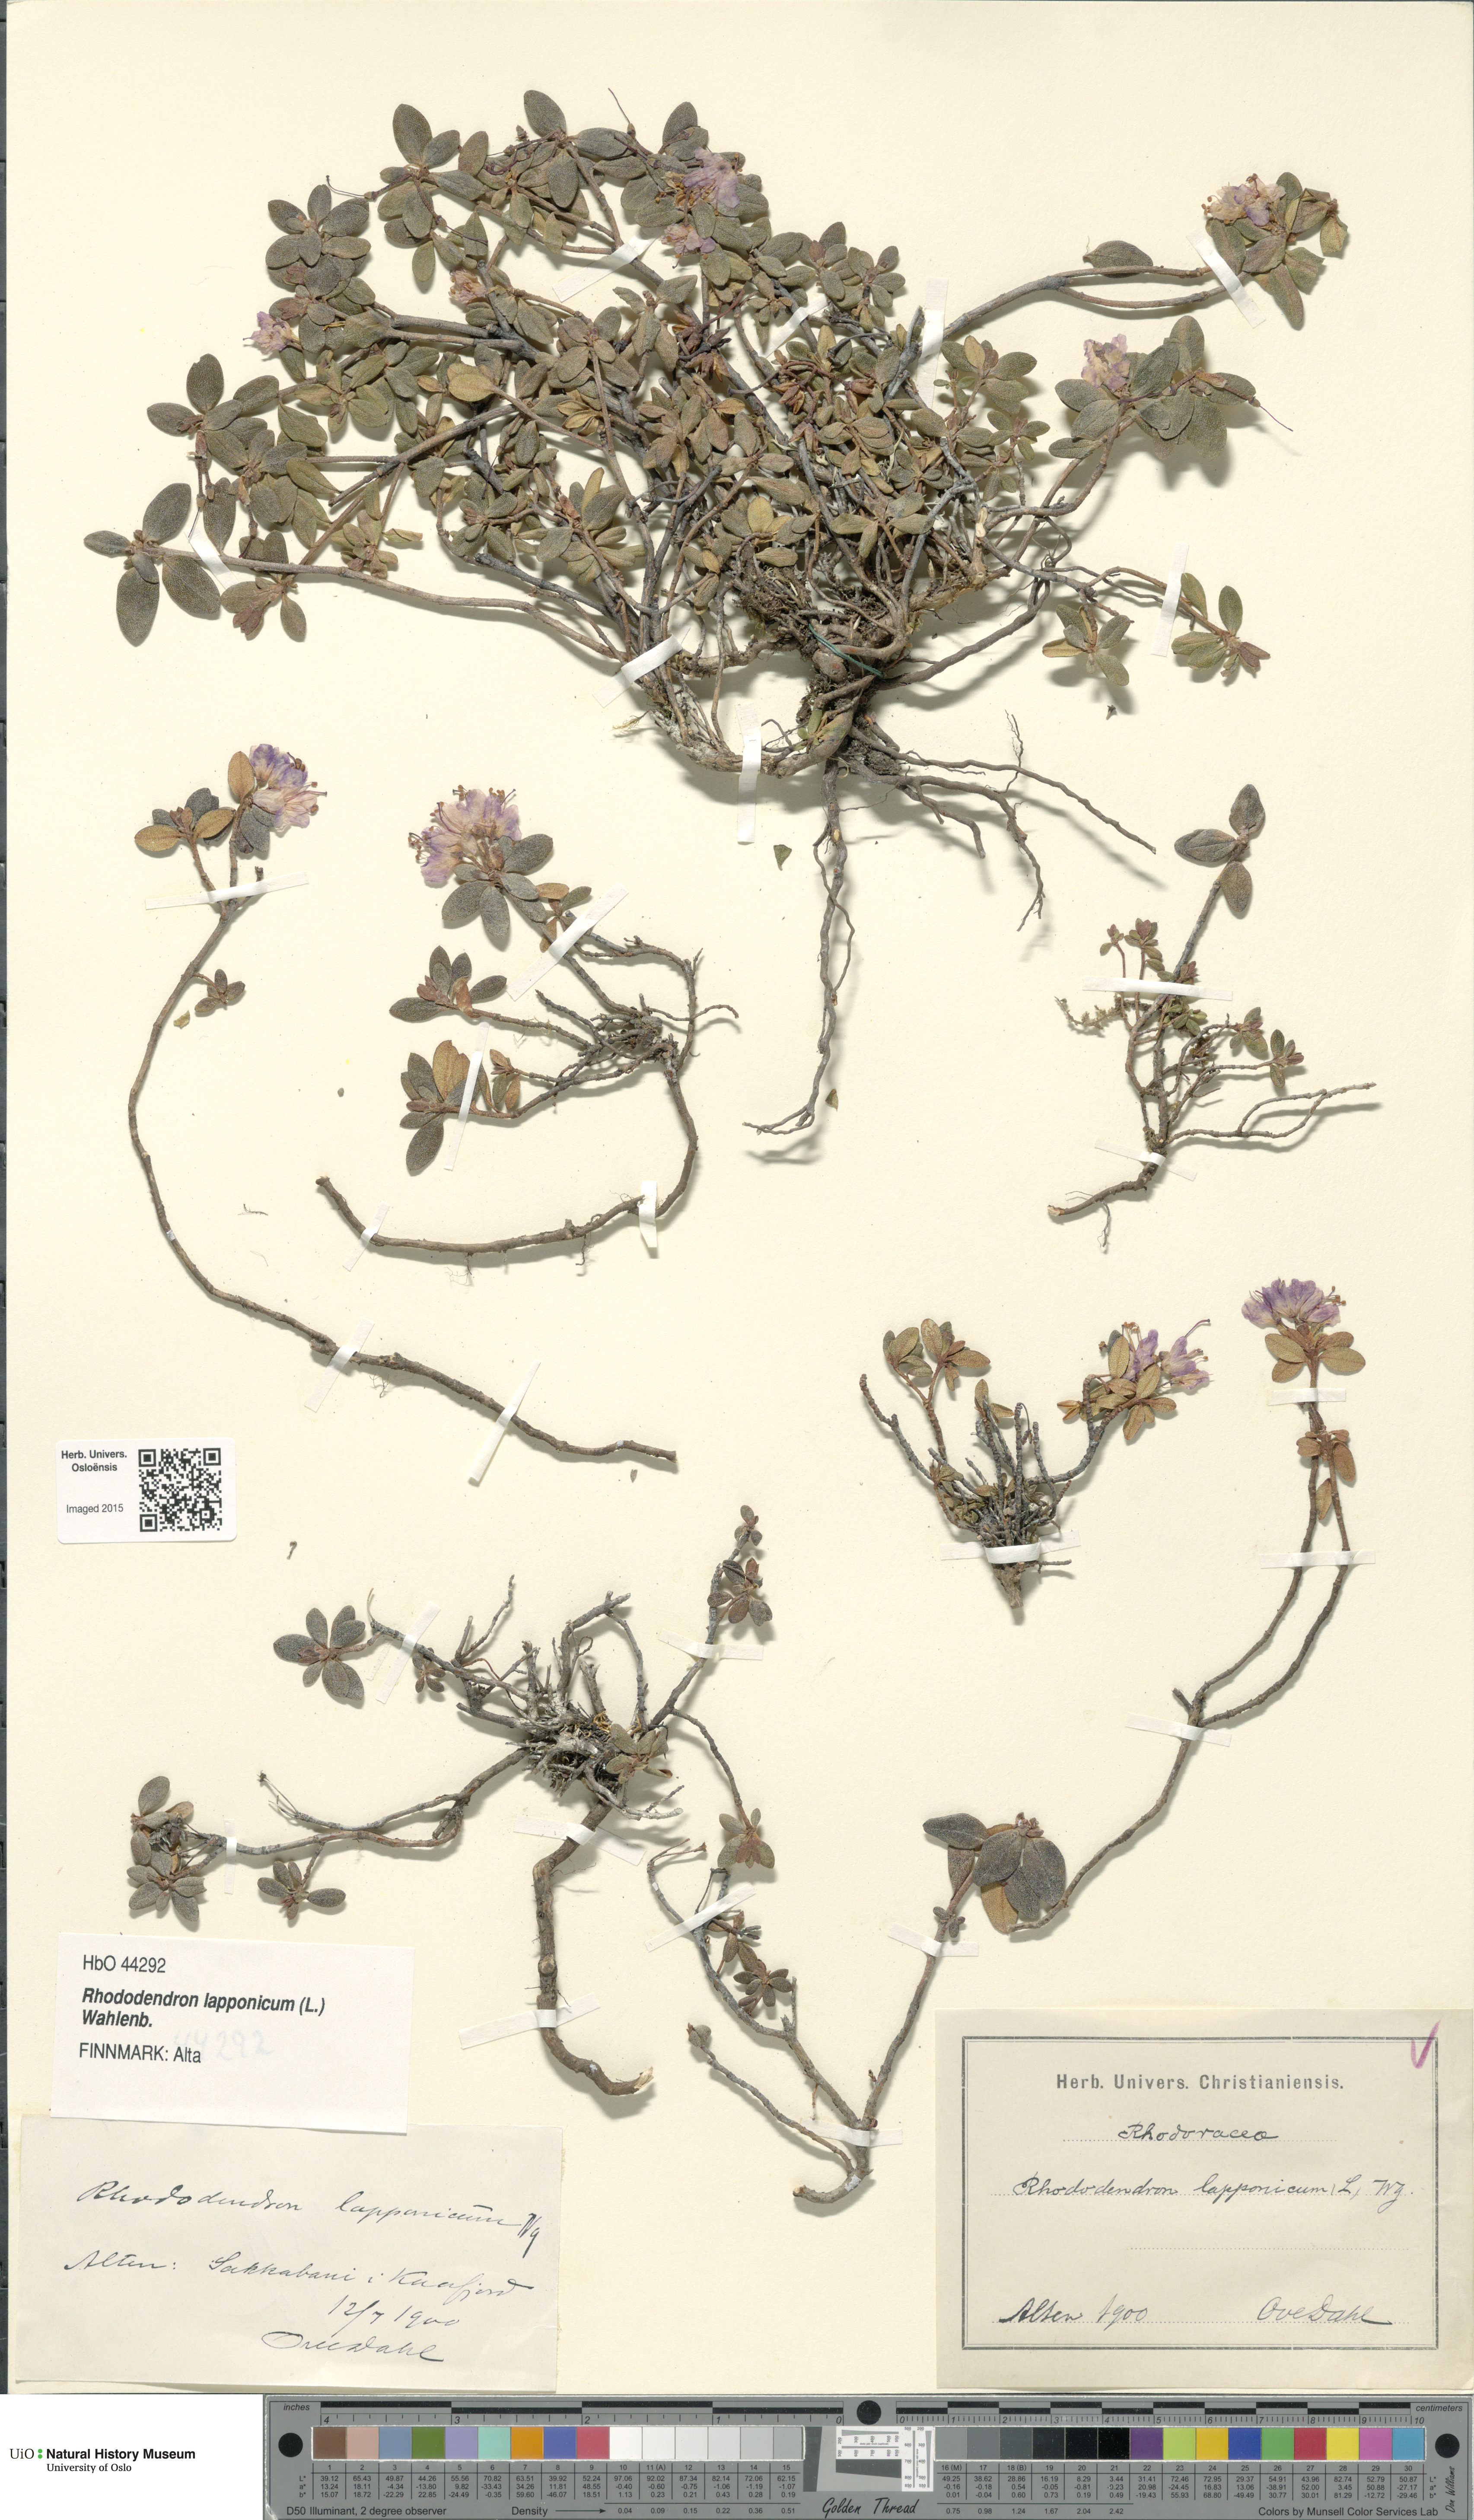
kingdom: Plantae
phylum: Tracheophyta
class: Magnoliopsida
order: Ericales
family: Ericaceae
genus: Rhododendron
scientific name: Rhododendron lapponicum
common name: Lapland rhododendron
